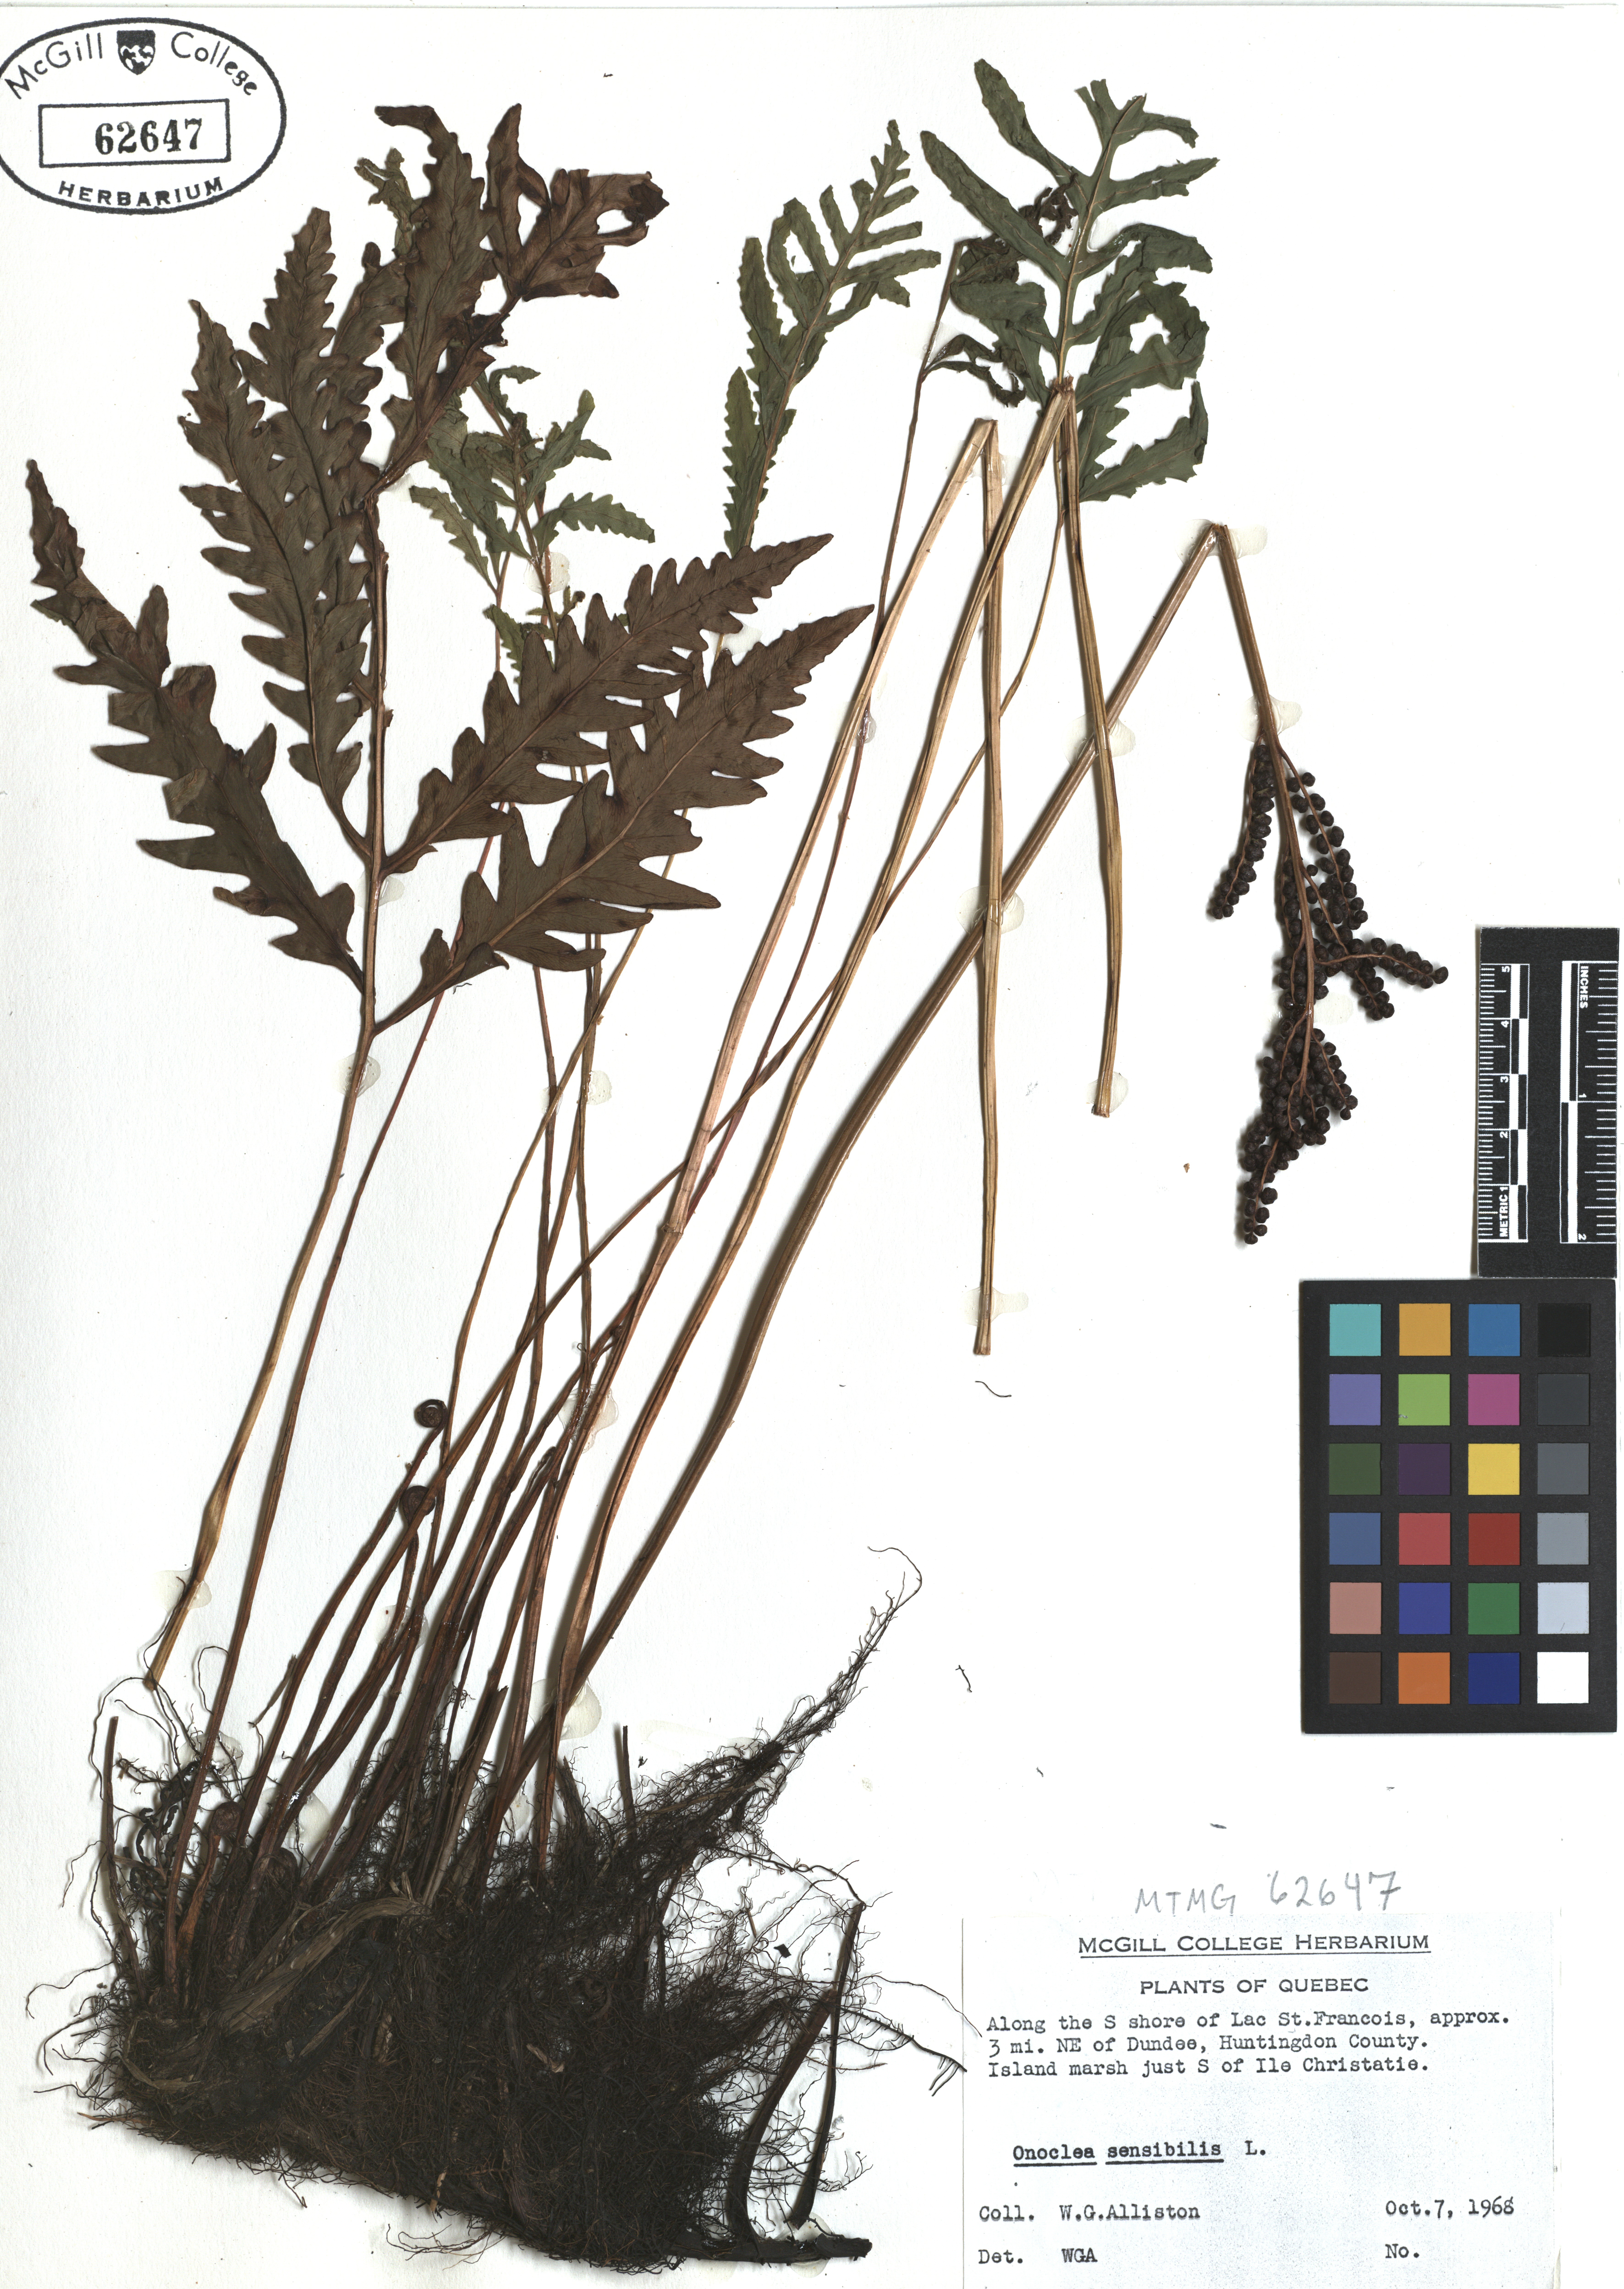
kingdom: Plantae
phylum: Tracheophyta
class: Polypodiopsida
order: Polypodiales
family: Onocleaceae
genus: Onoclea
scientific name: Onoclea sensibilis
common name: Sensitive fern
